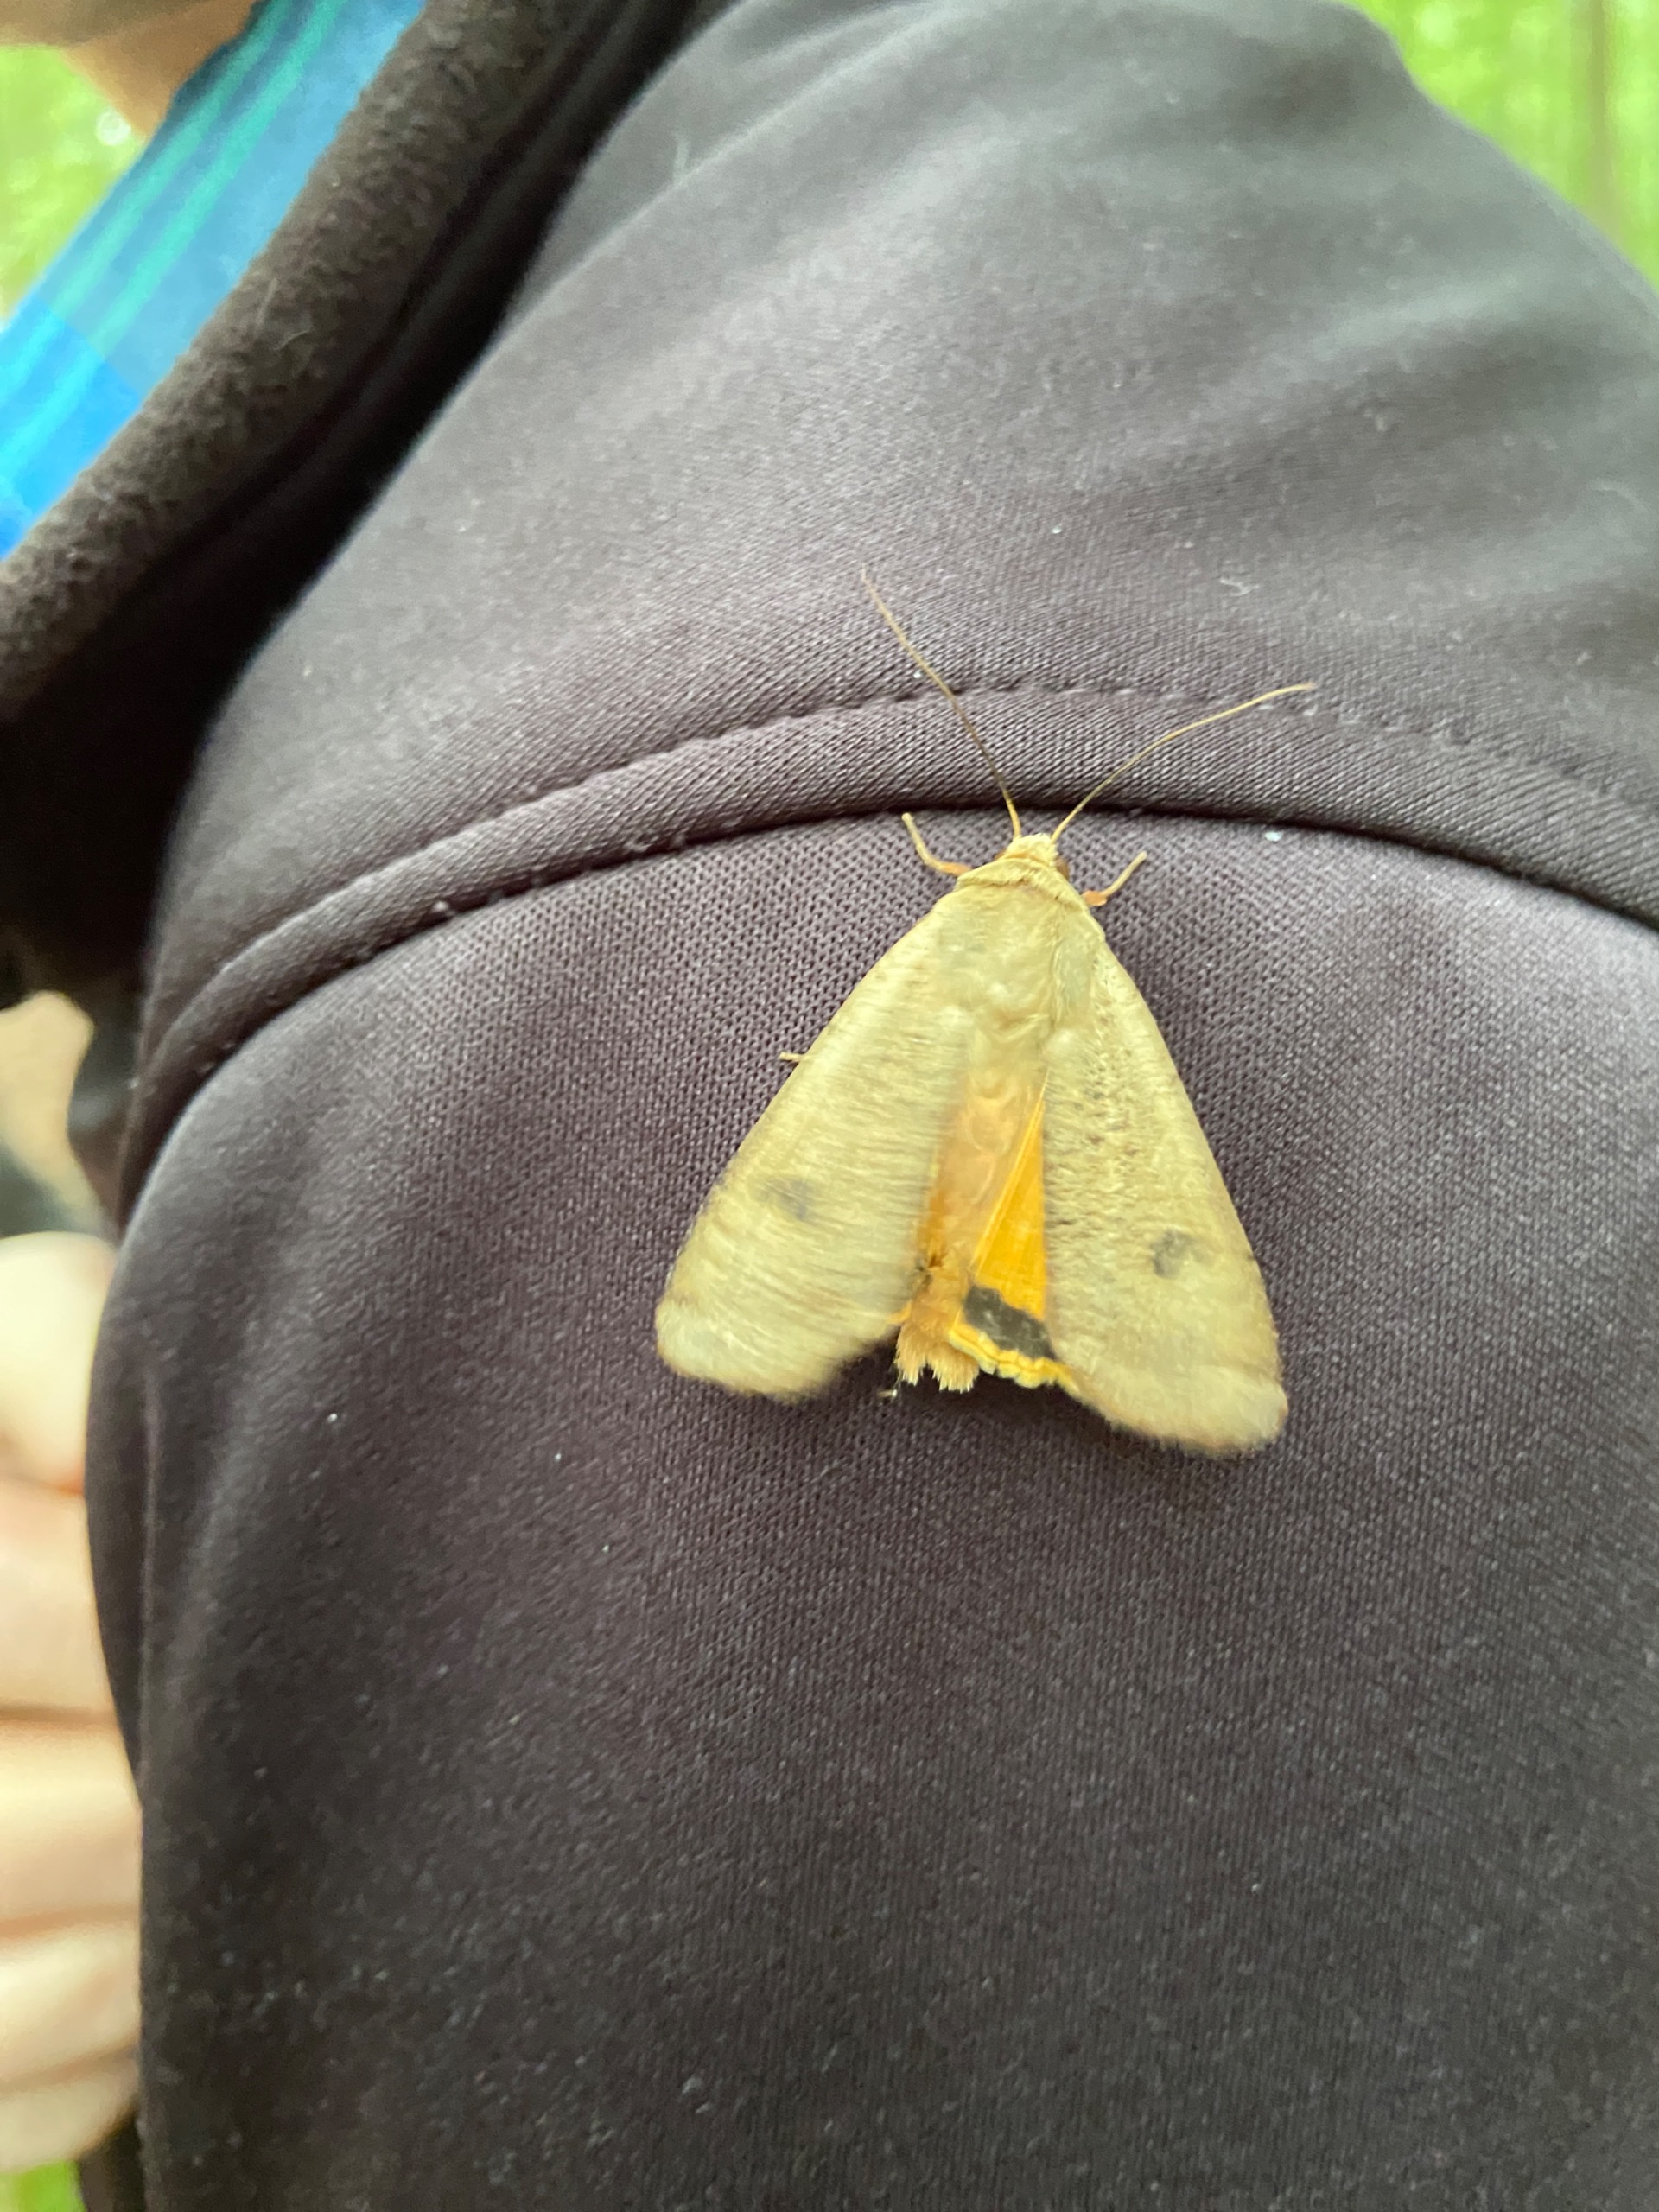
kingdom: Animalia
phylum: Arthropoda
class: Insecta
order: Lepidoptera
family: Noctuidae
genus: Noctua
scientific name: Noctua pronuba
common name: Stor smutugle
